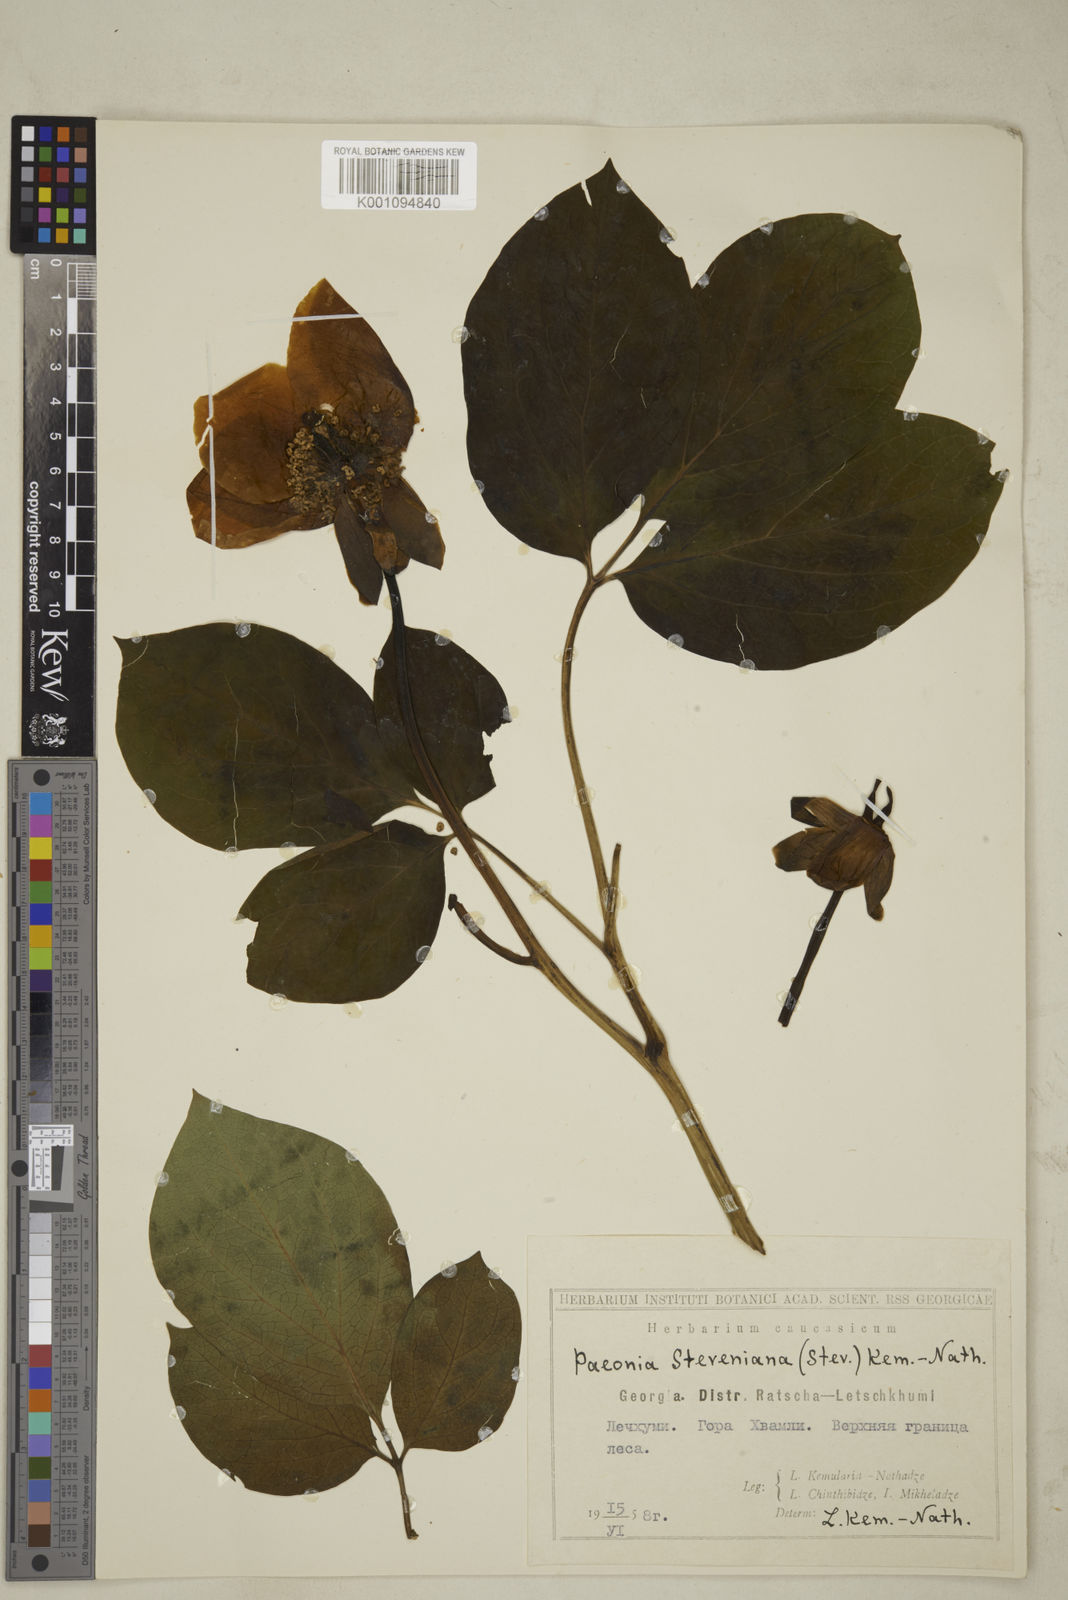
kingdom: Plantae
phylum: Tracheophyta
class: Magnoliopsida
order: Saxifragales
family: Paeoniaceae
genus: Paeonia
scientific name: Paeonia wittmanniana
